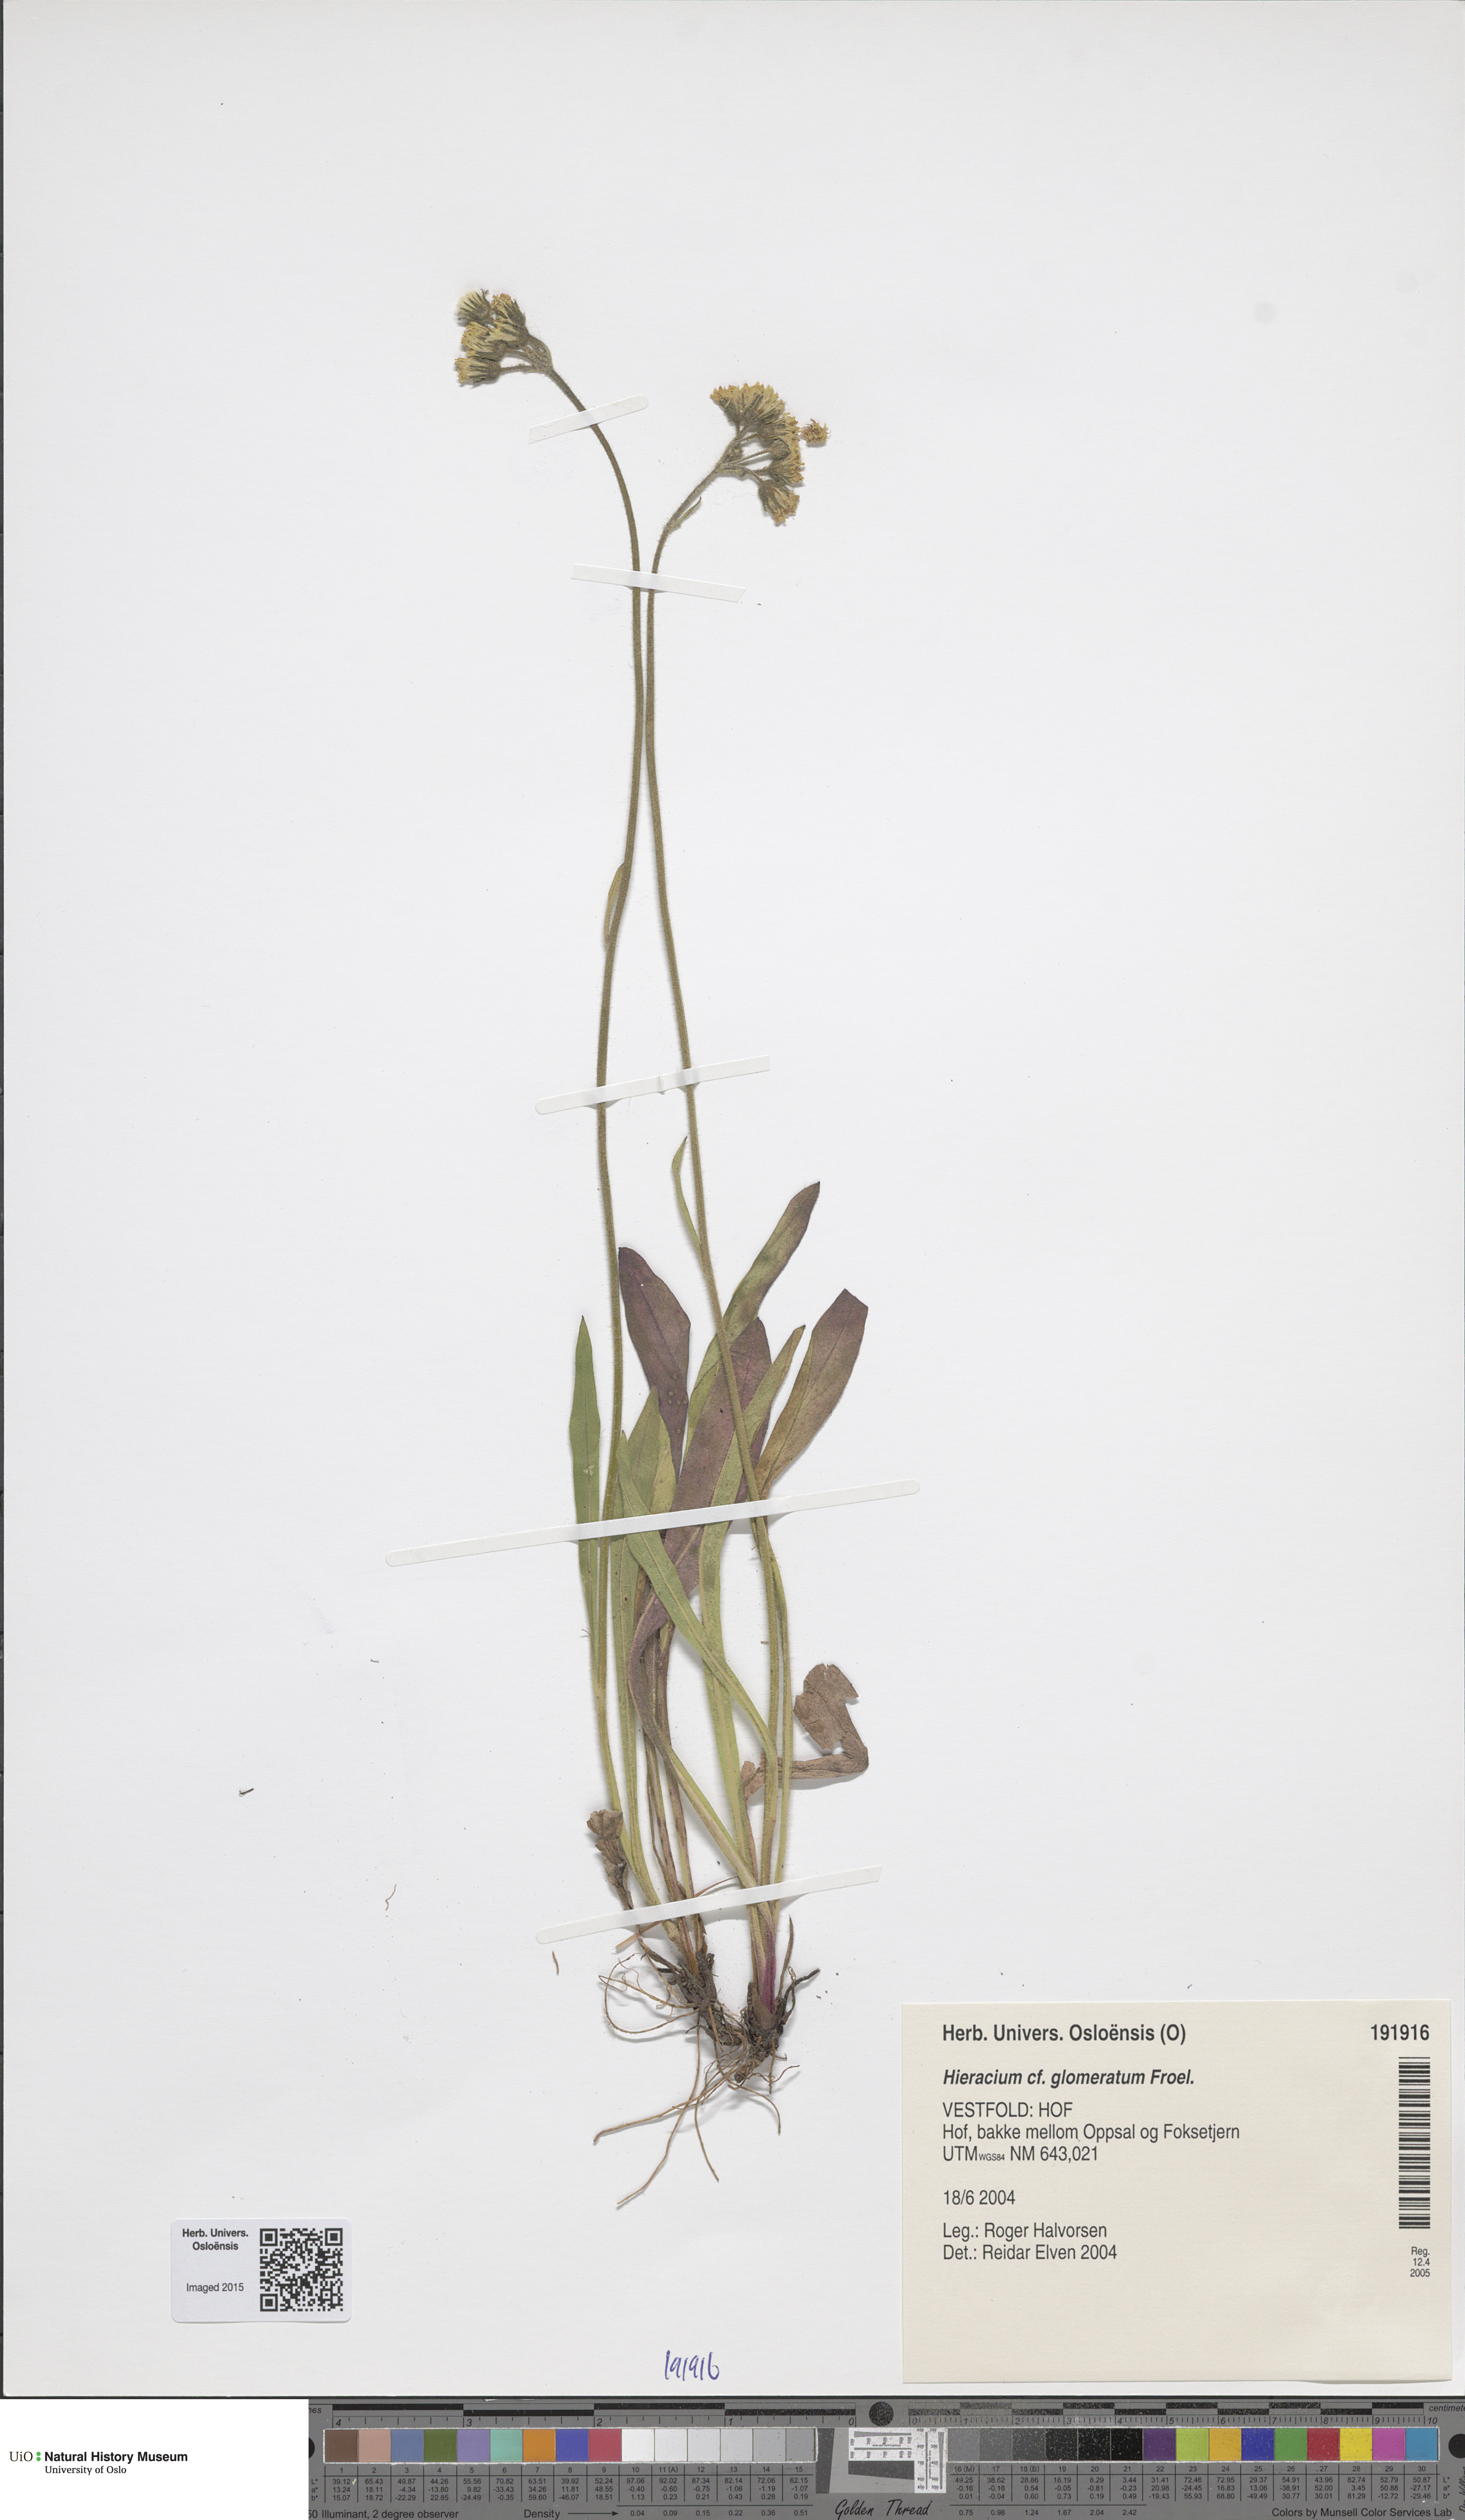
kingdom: Plantae
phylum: Tracheophyta
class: Magnoliopsida
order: Asterales
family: Asteraceae
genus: Pilosella
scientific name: Pilosella glomerata
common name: Queen devil hawkweed
